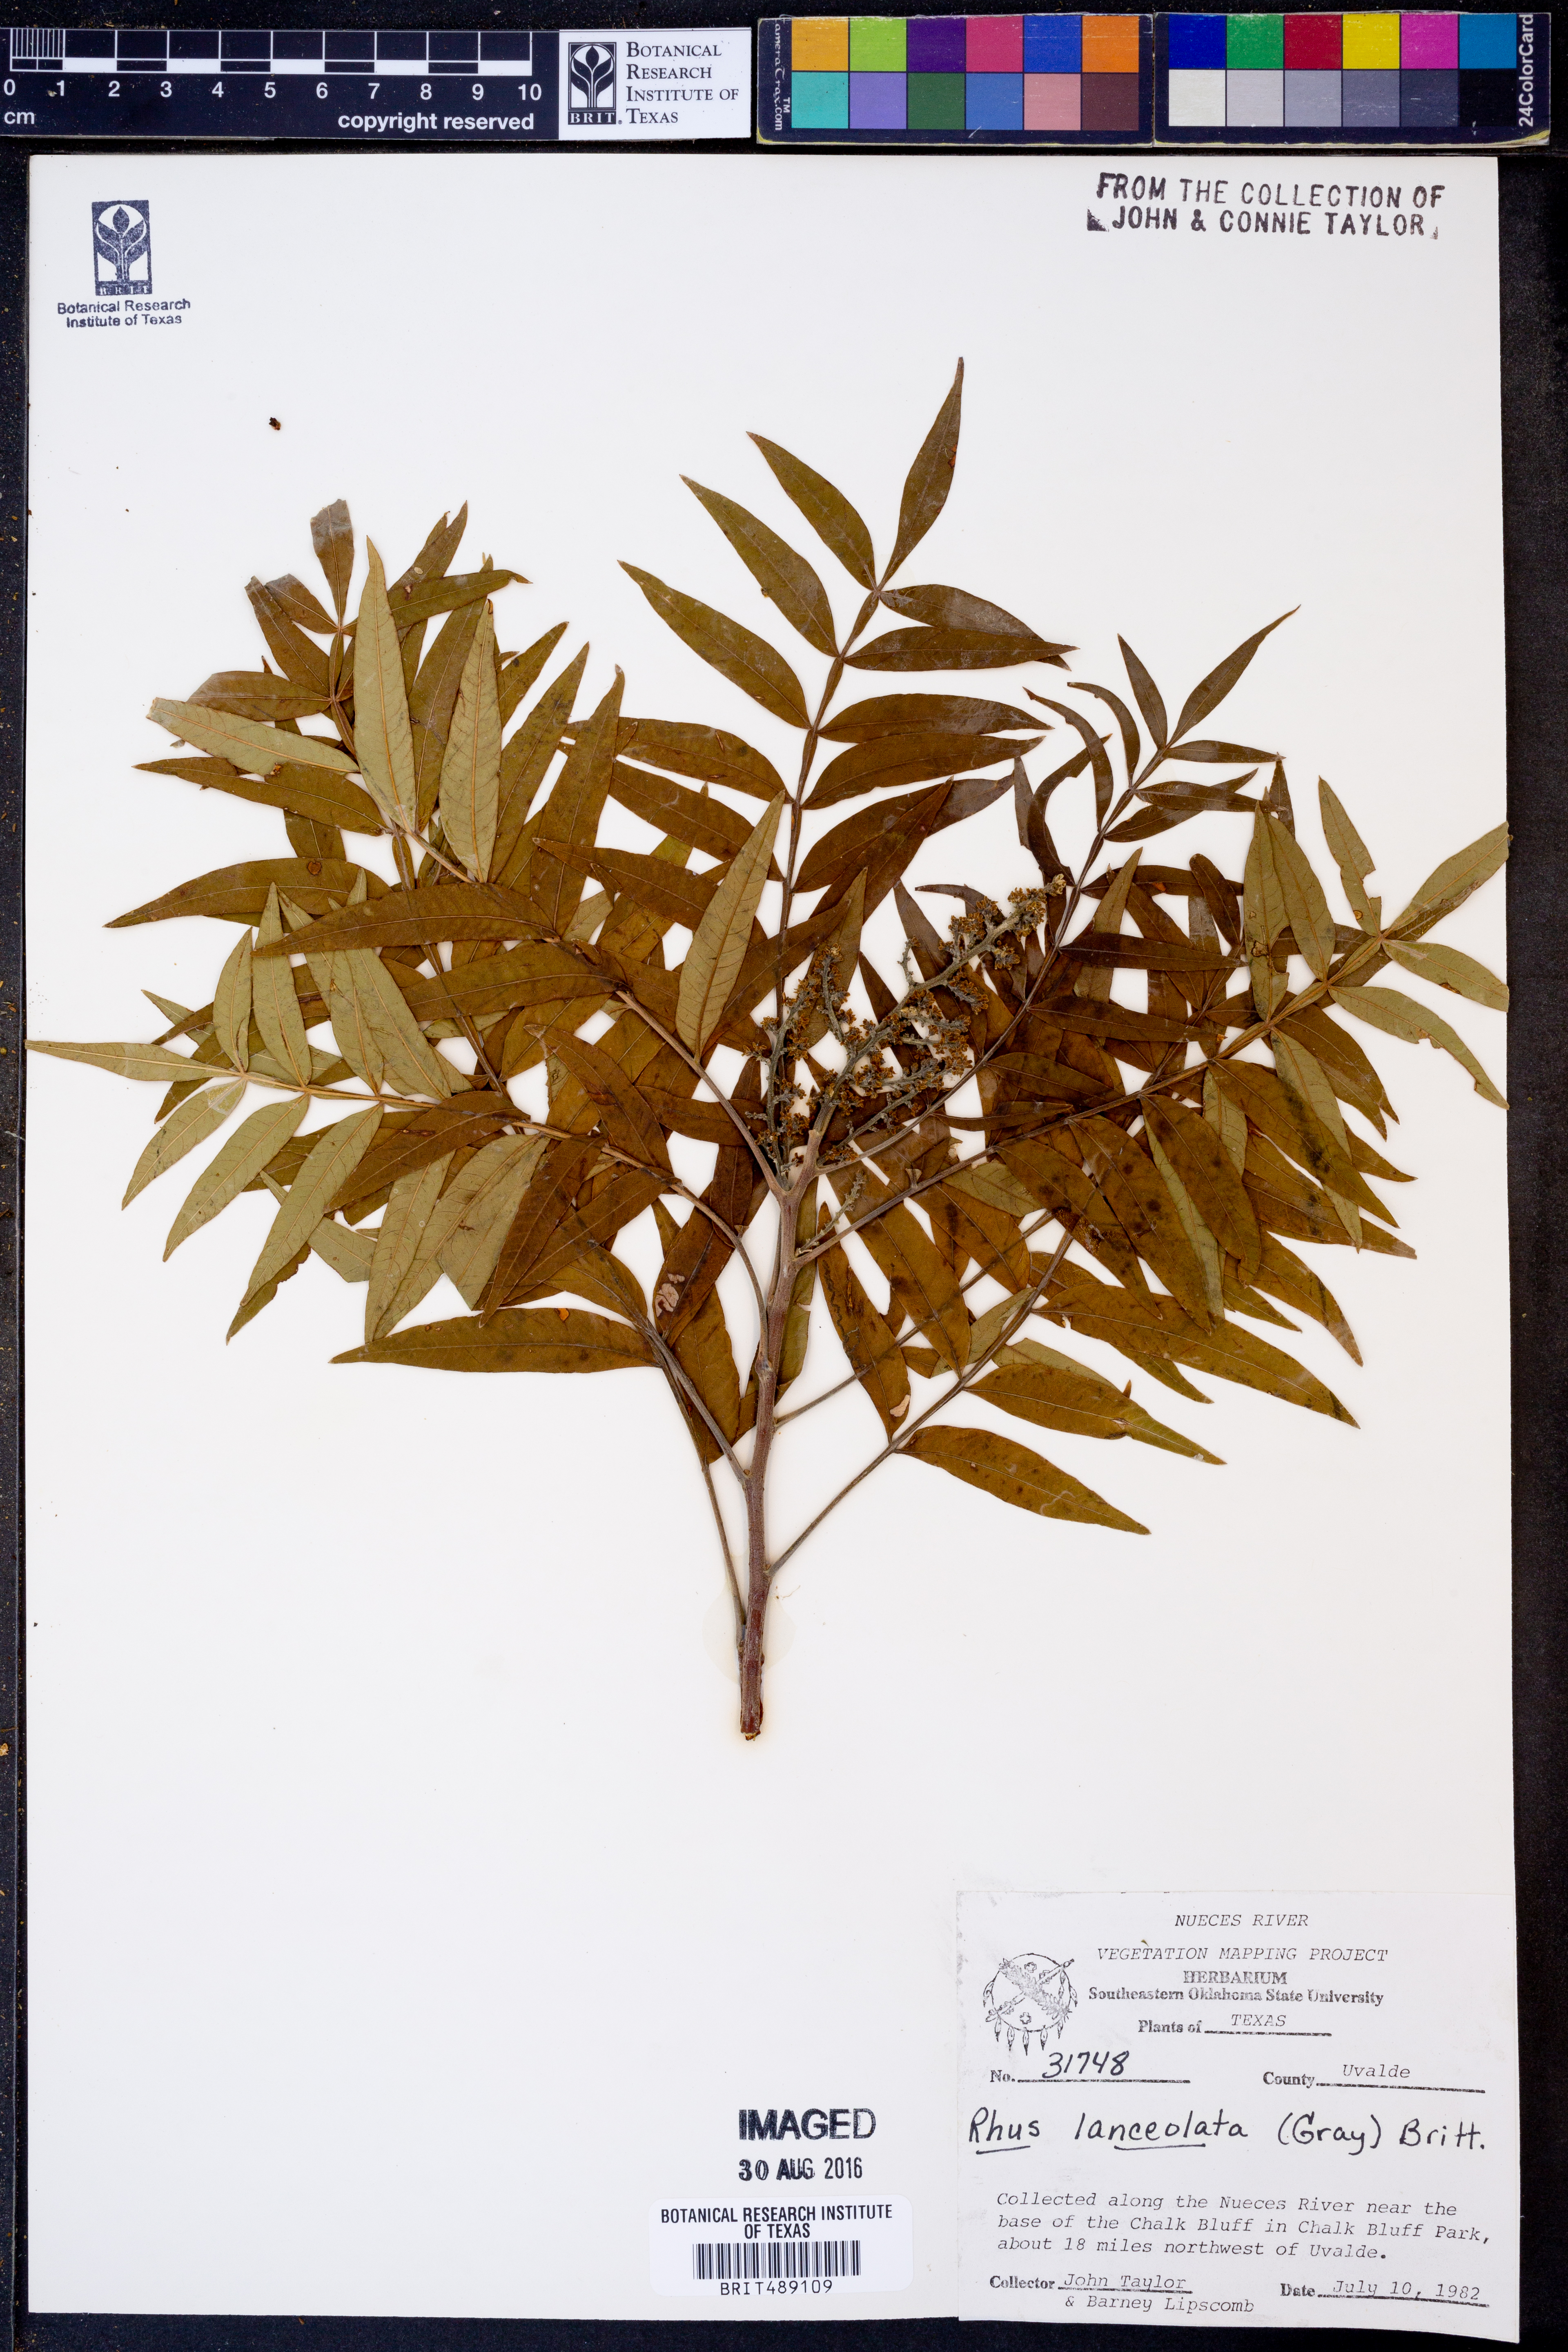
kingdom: Plantae
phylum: Tracheophyta
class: Magnoliopsida
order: Sapindales
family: Anacardiaceae
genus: Rhus
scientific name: Rhus lanceolata
